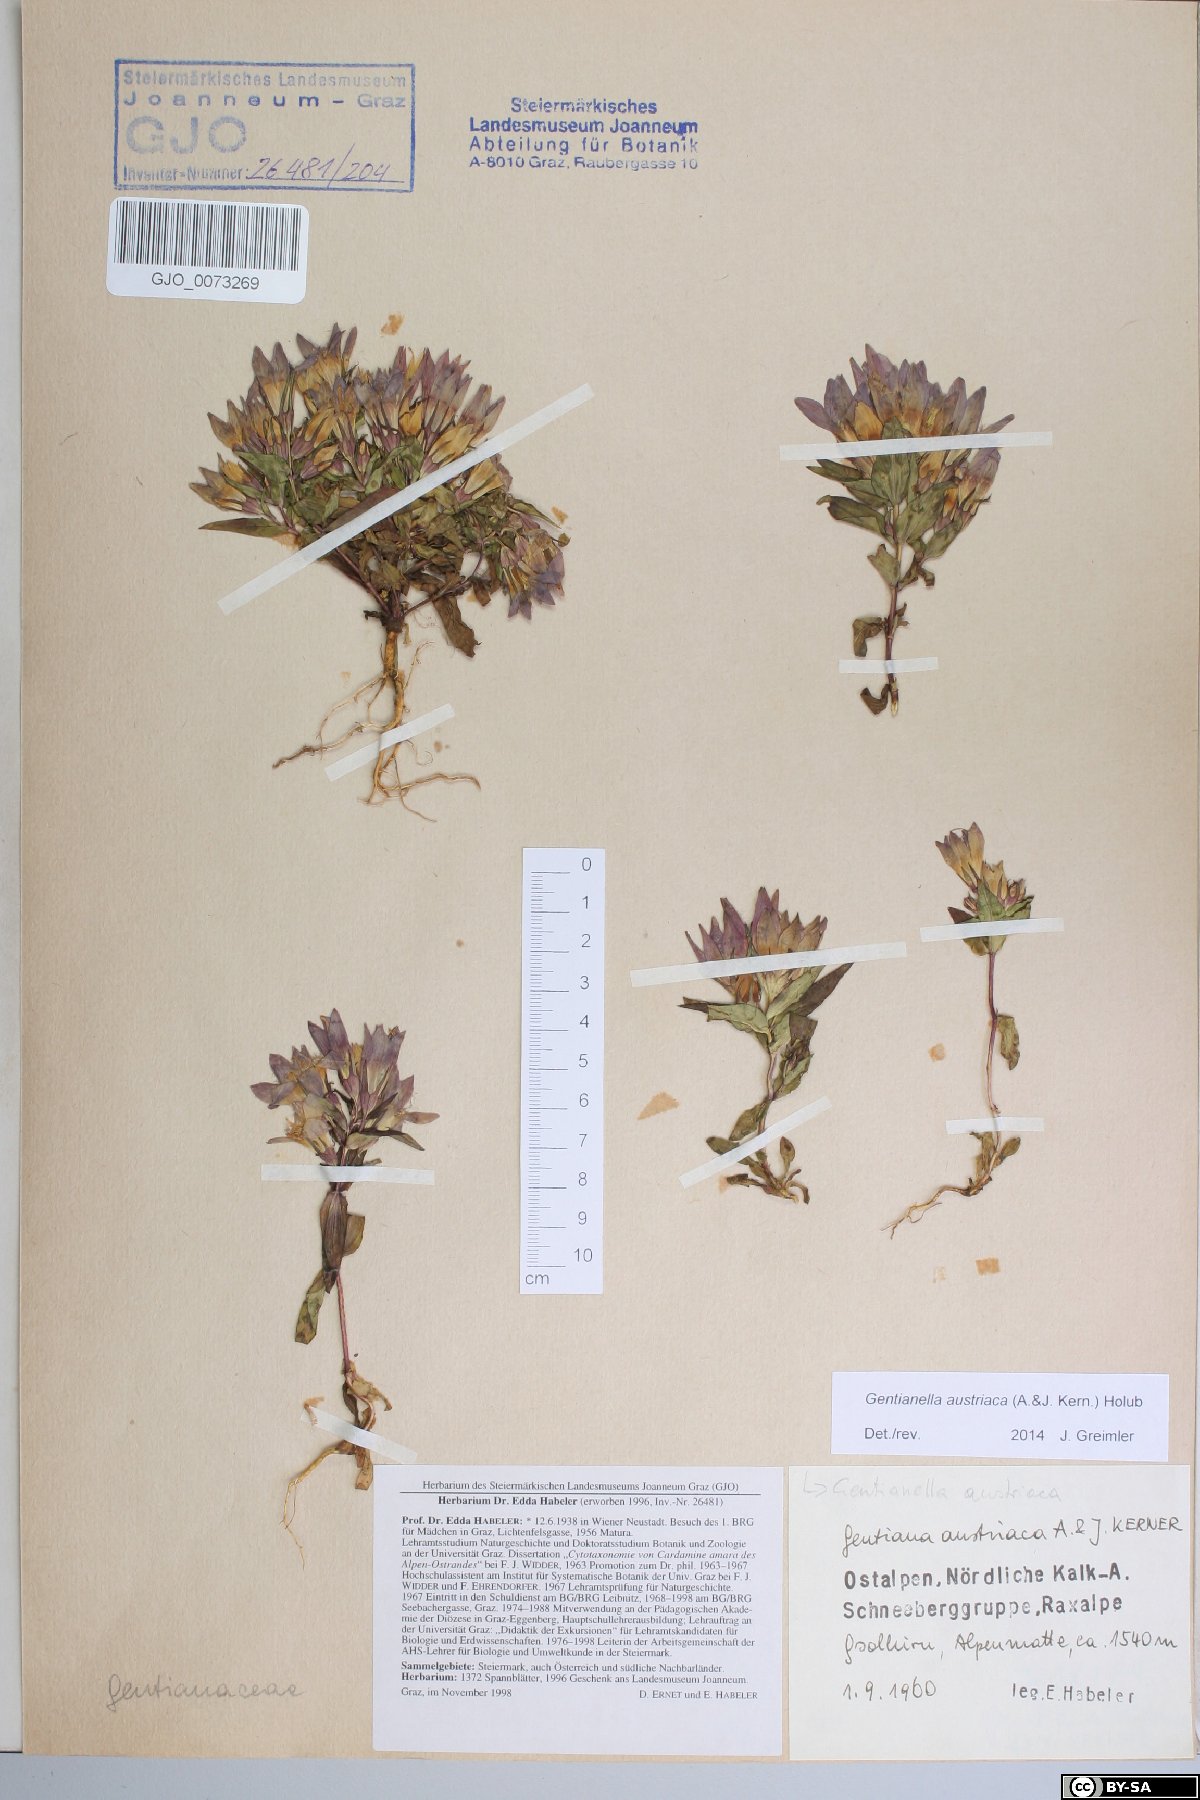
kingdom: Plantae
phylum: Tracheophyta
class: Magnoliopsida
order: Gentianales
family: Gentianaceae
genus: Gentianella
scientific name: Gentianella austriaca
